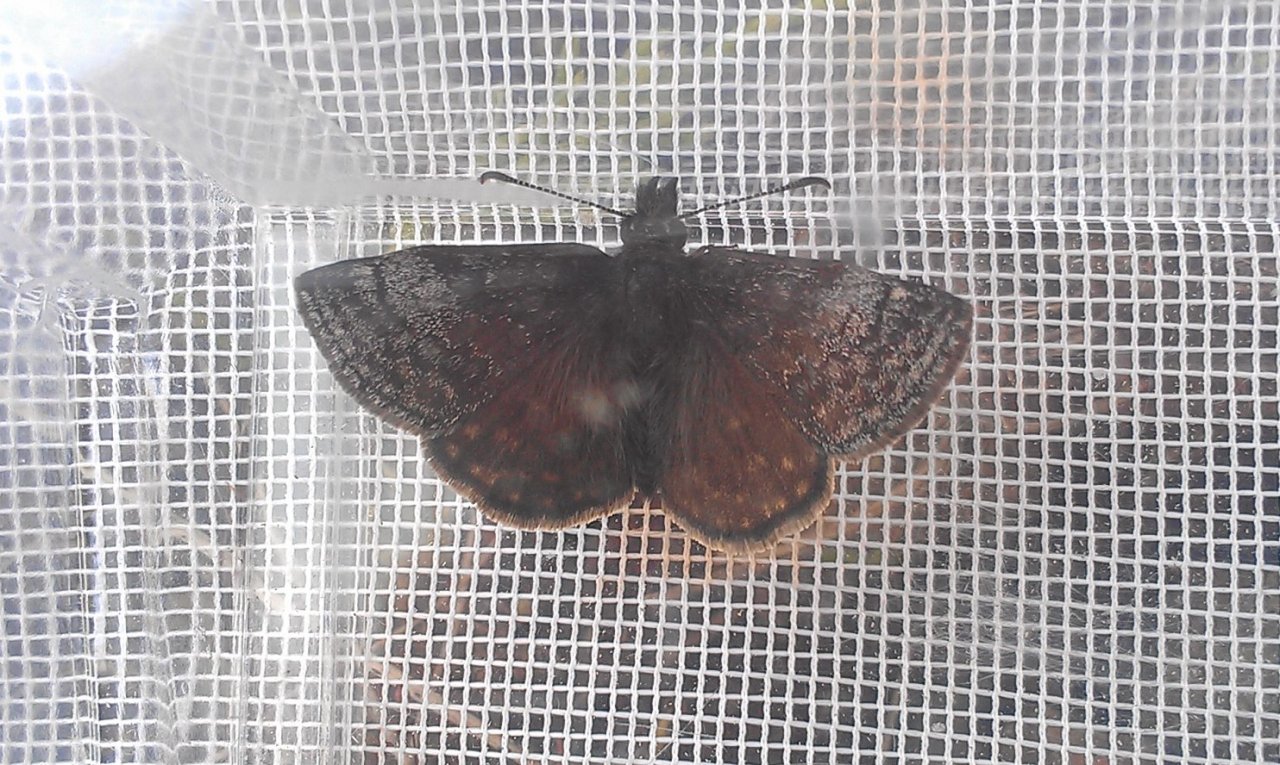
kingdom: Animalia
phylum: Arthropoda
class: Insecta
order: Lepidoptera
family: Hesperiidae
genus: Erynnis
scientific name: Erynnis icelus
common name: Dreamy Duskywing
